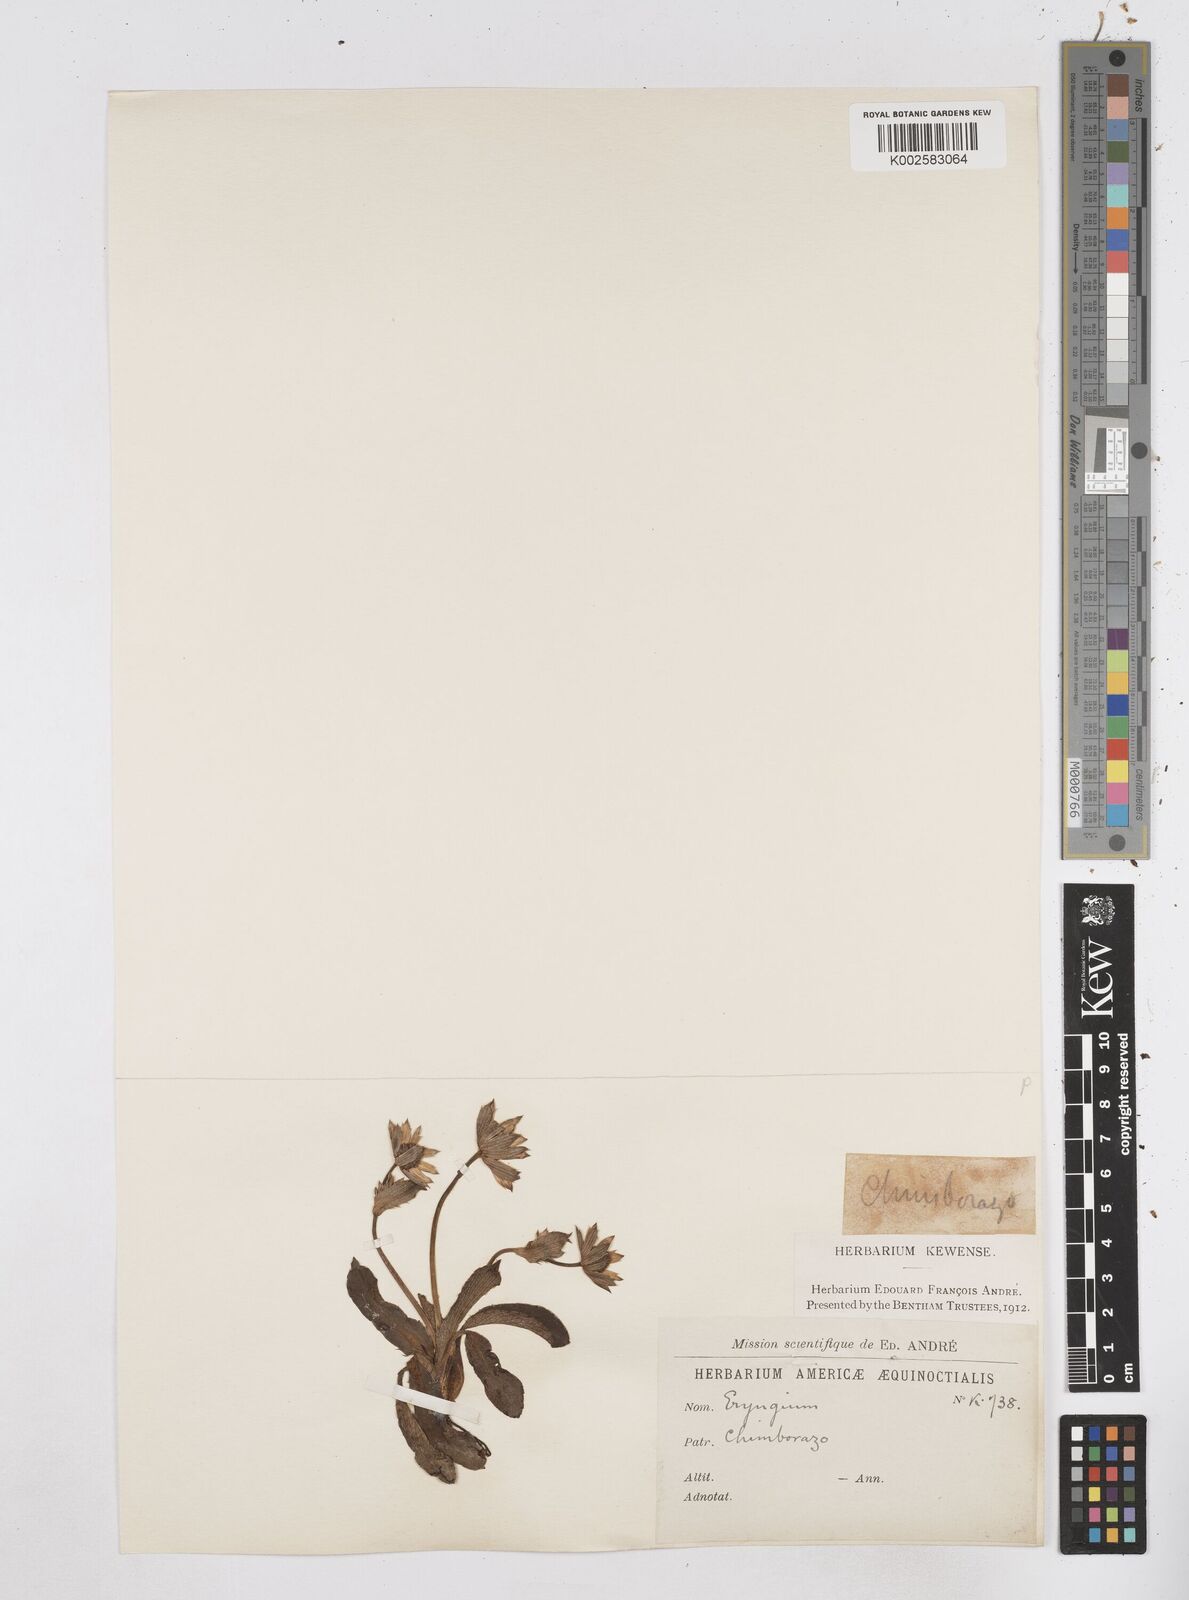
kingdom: Plantae
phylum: Tracheophyta
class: Magnoliopsida
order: Apiales
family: Apiaceae
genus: Eryngium
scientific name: Eryngium humile
